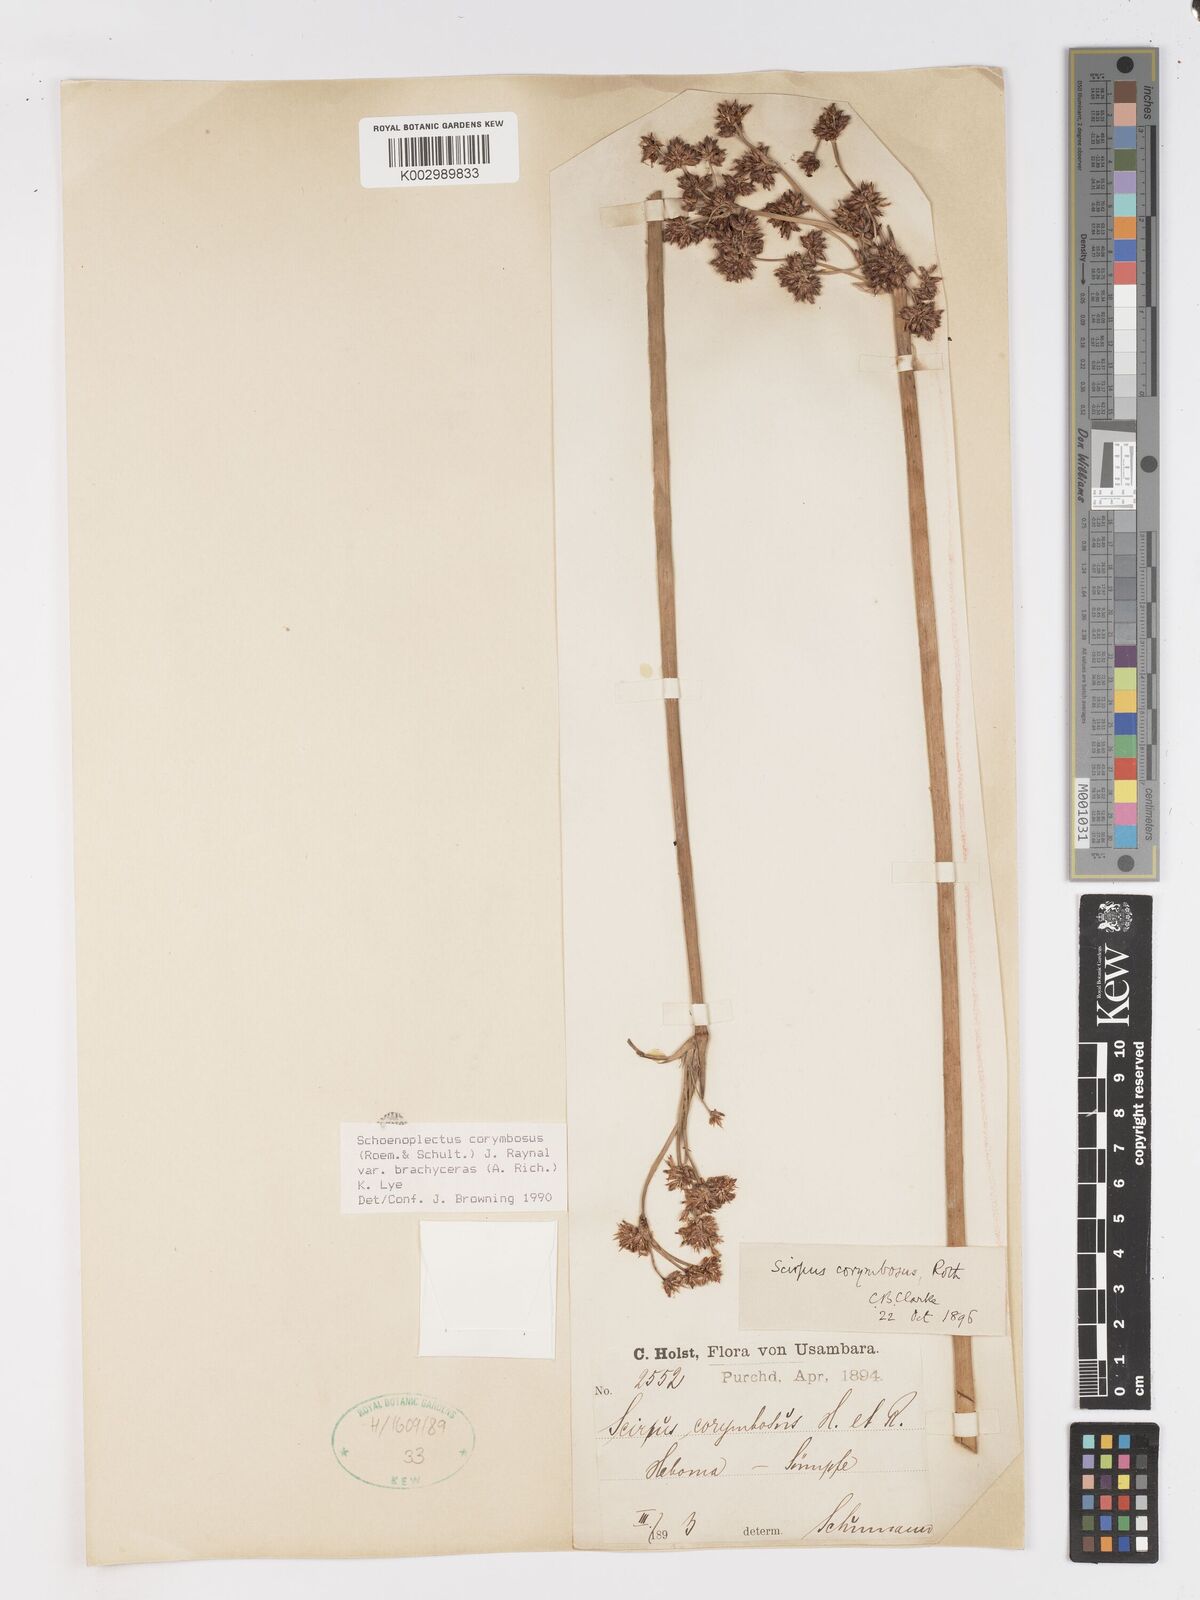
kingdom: Plantae
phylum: Tracheophyta
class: Liliopsida
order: Poales
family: Cyperaceae
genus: Schoenoplectiella
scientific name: Schoenoplectiella brachyceras
